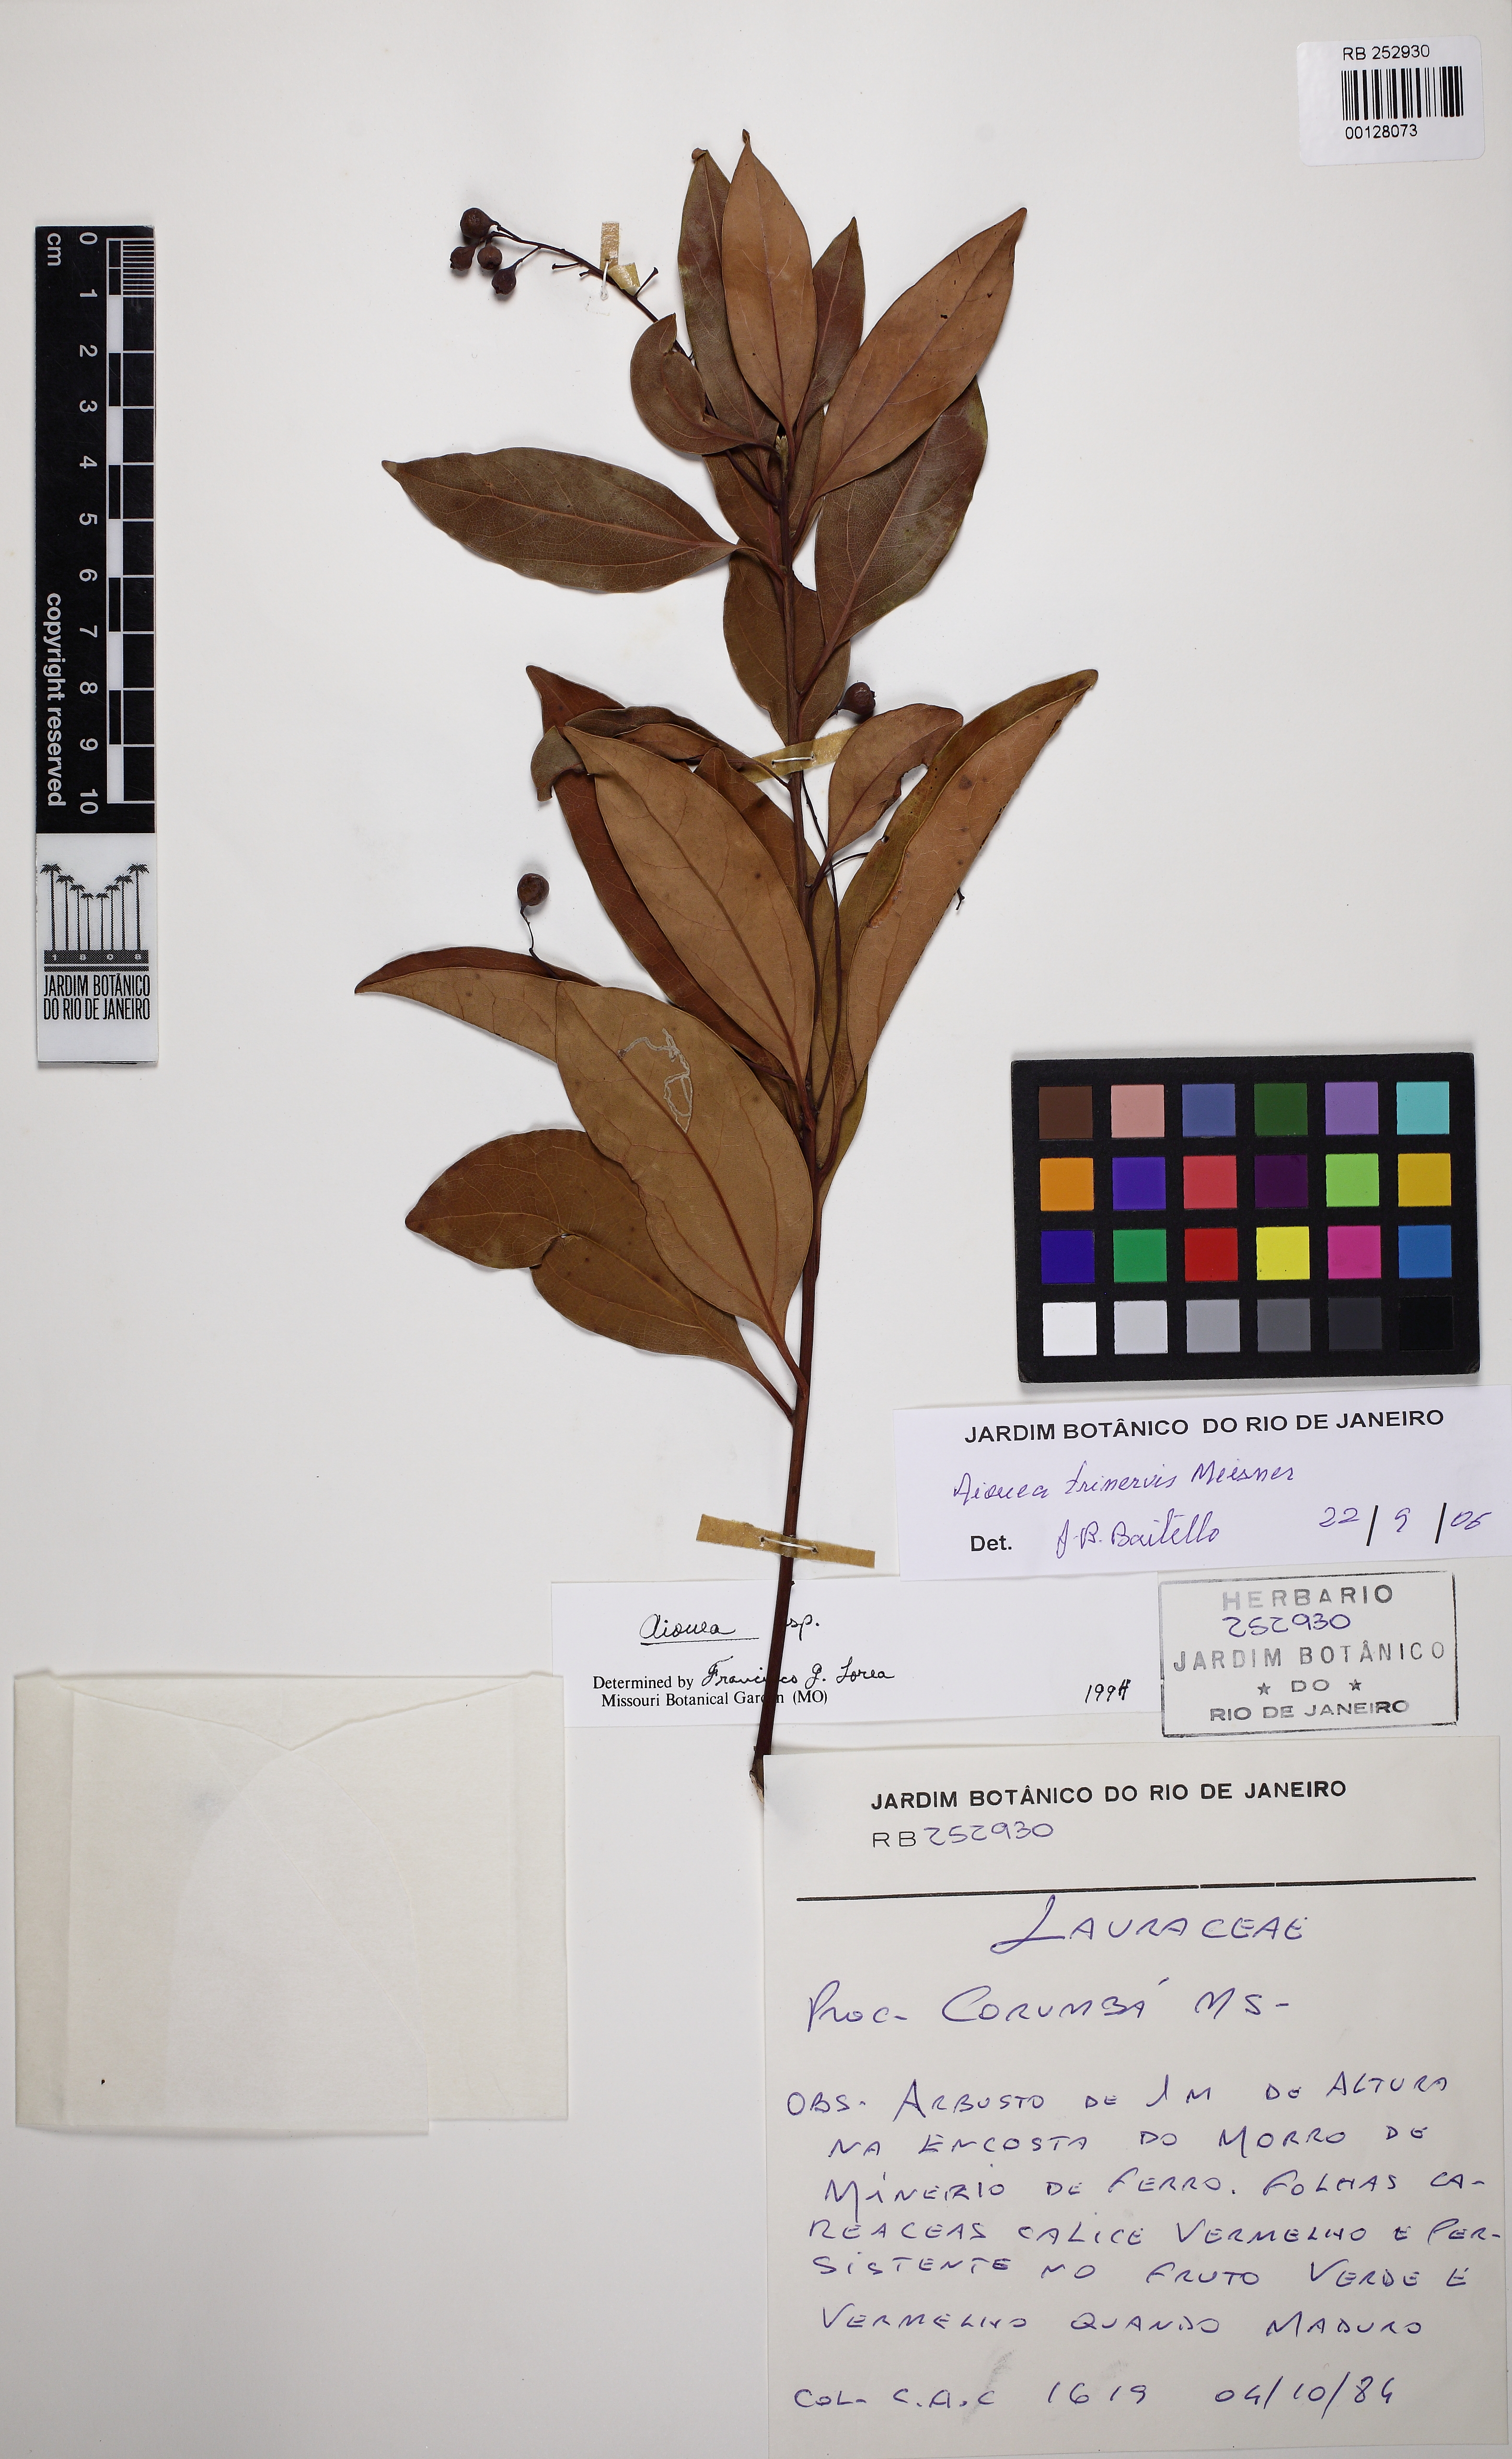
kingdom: Plantae
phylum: Tracheophyta
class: Magnoliopsida
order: Laurales
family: Lauraceae
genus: Aiouea
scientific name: Aiouea trinervis
